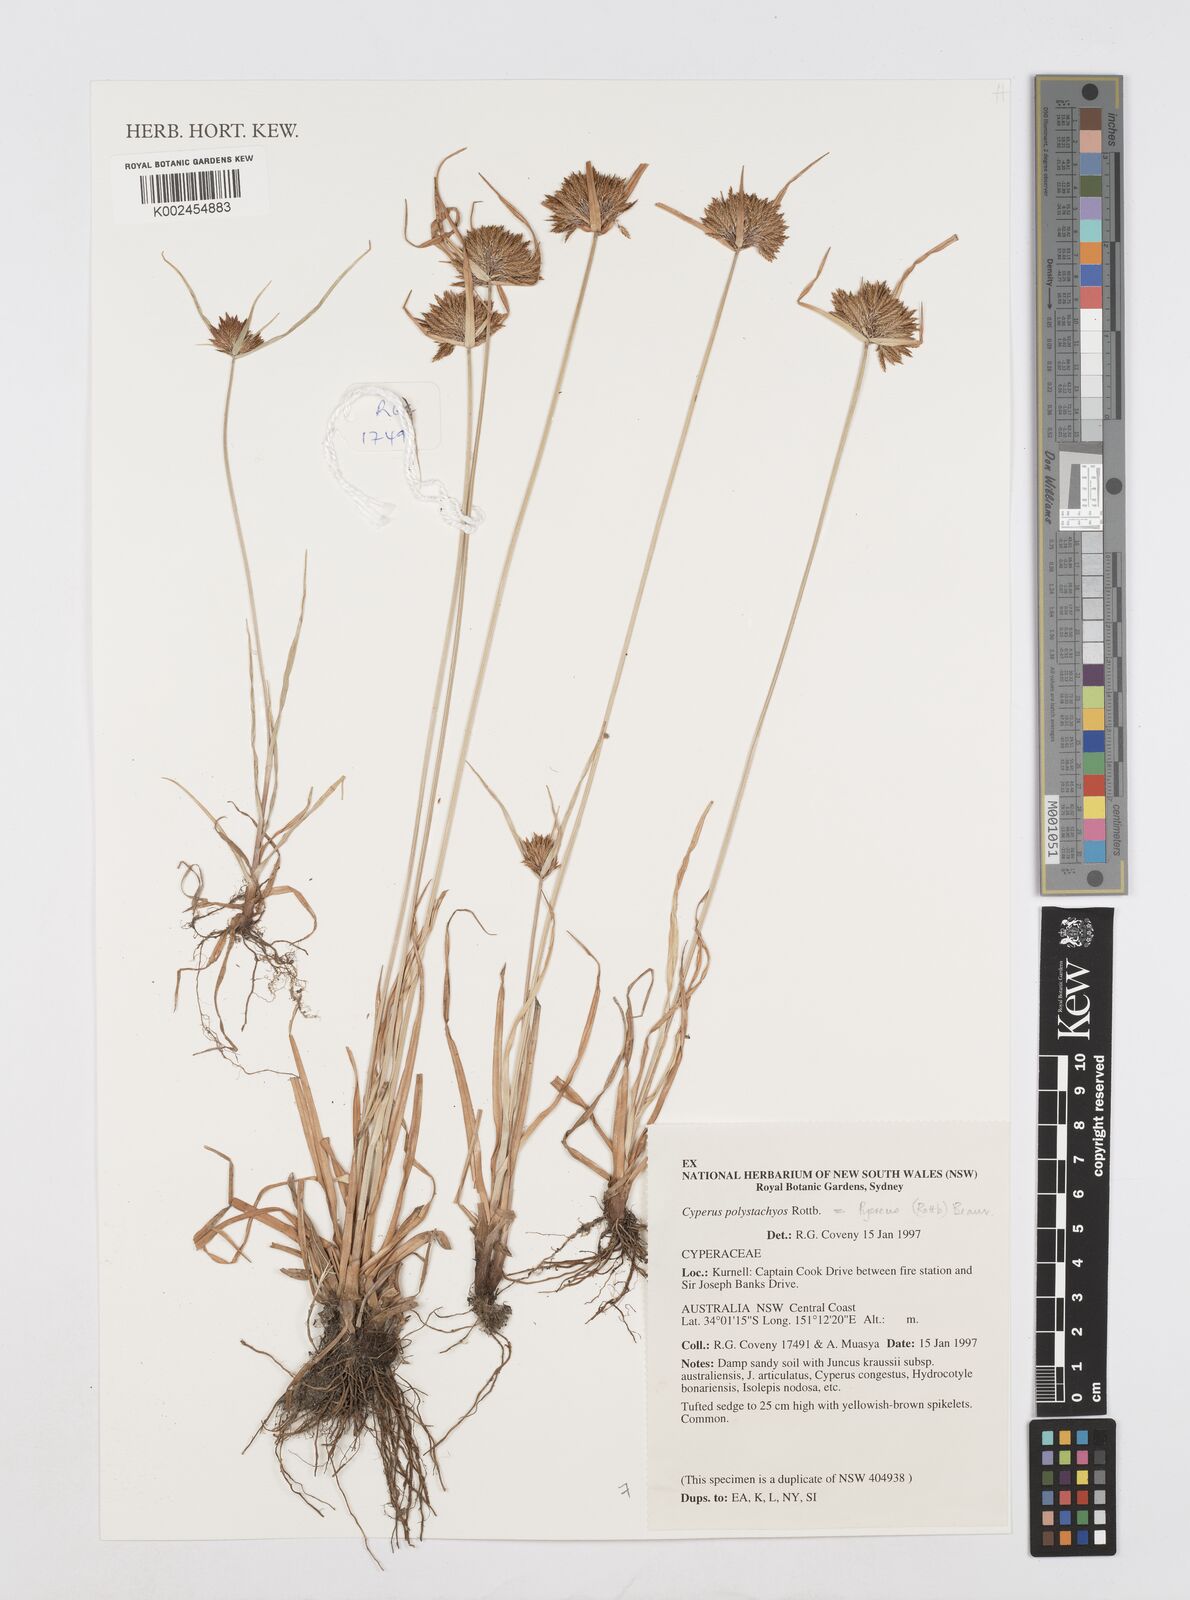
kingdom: Plantae
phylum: Tracheophyta
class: Liliopsida
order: Poales
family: Cyperaceae
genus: Cyperus
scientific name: Cyperus polystachyos
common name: Bunchy flat sedge
